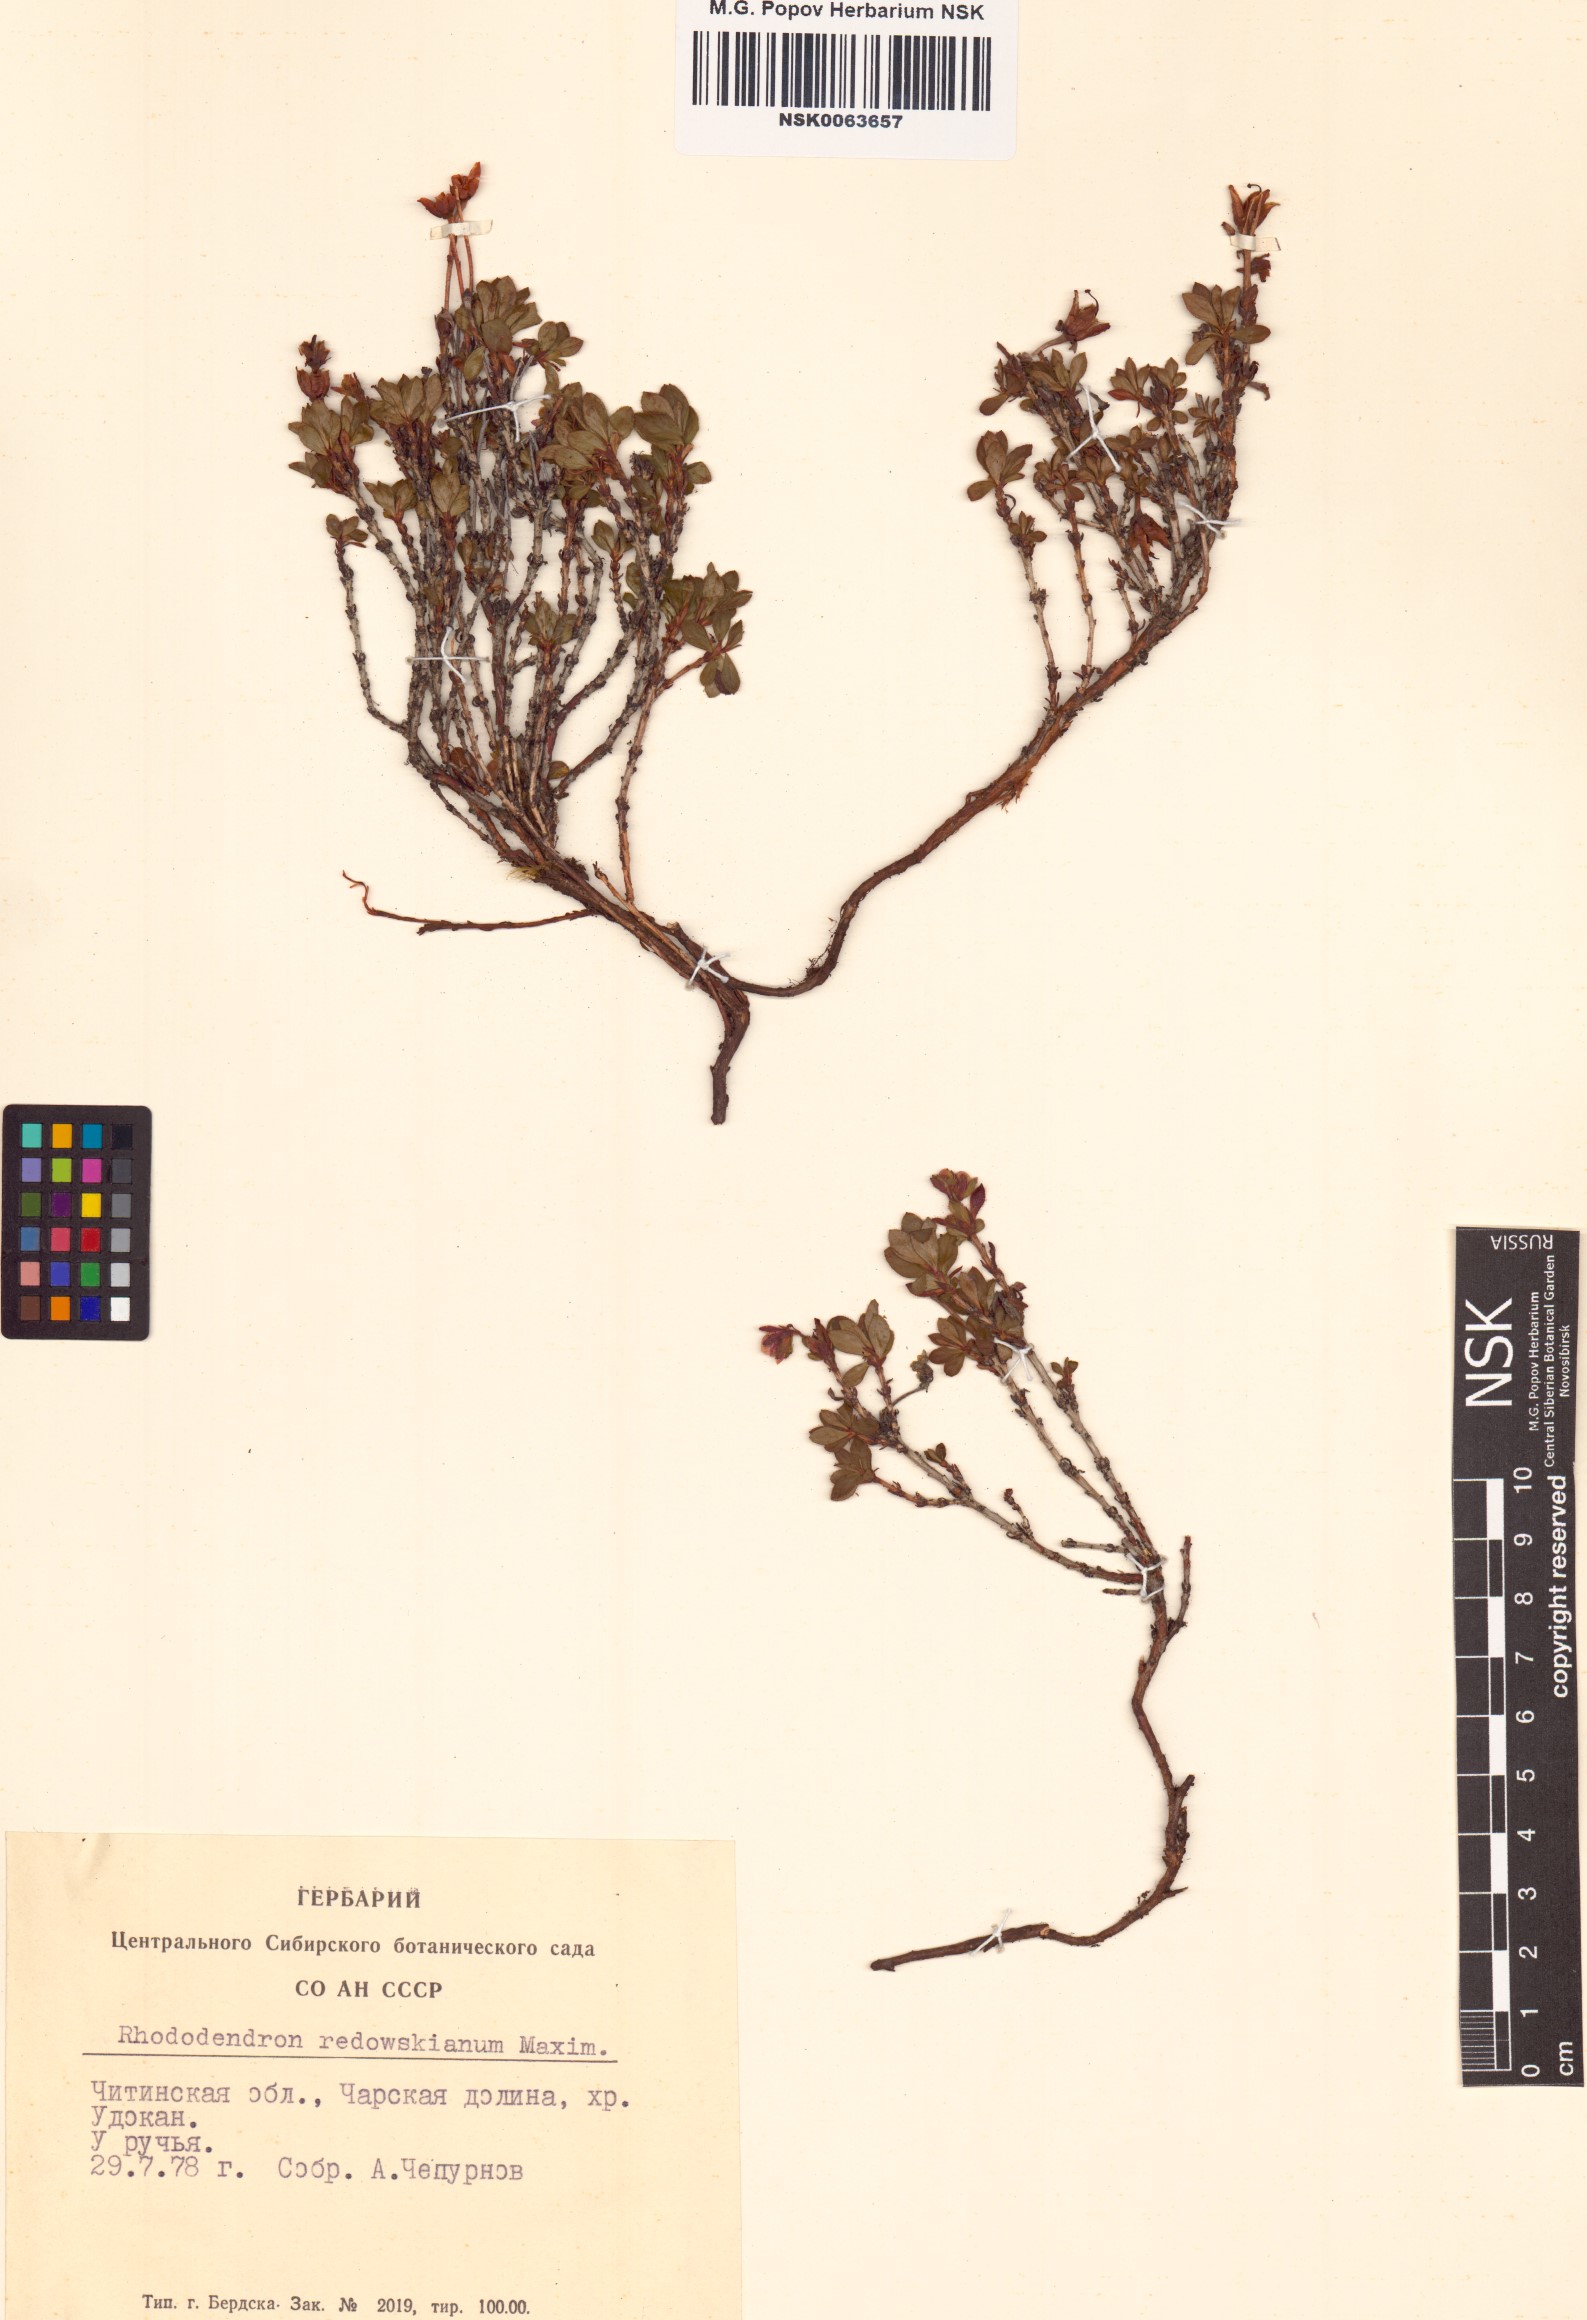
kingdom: Plantae
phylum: Tracheophyta
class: Magnoliopsida
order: Ericales
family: Ericaceae
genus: Rhododendron
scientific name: Rhododendron redowskianum
